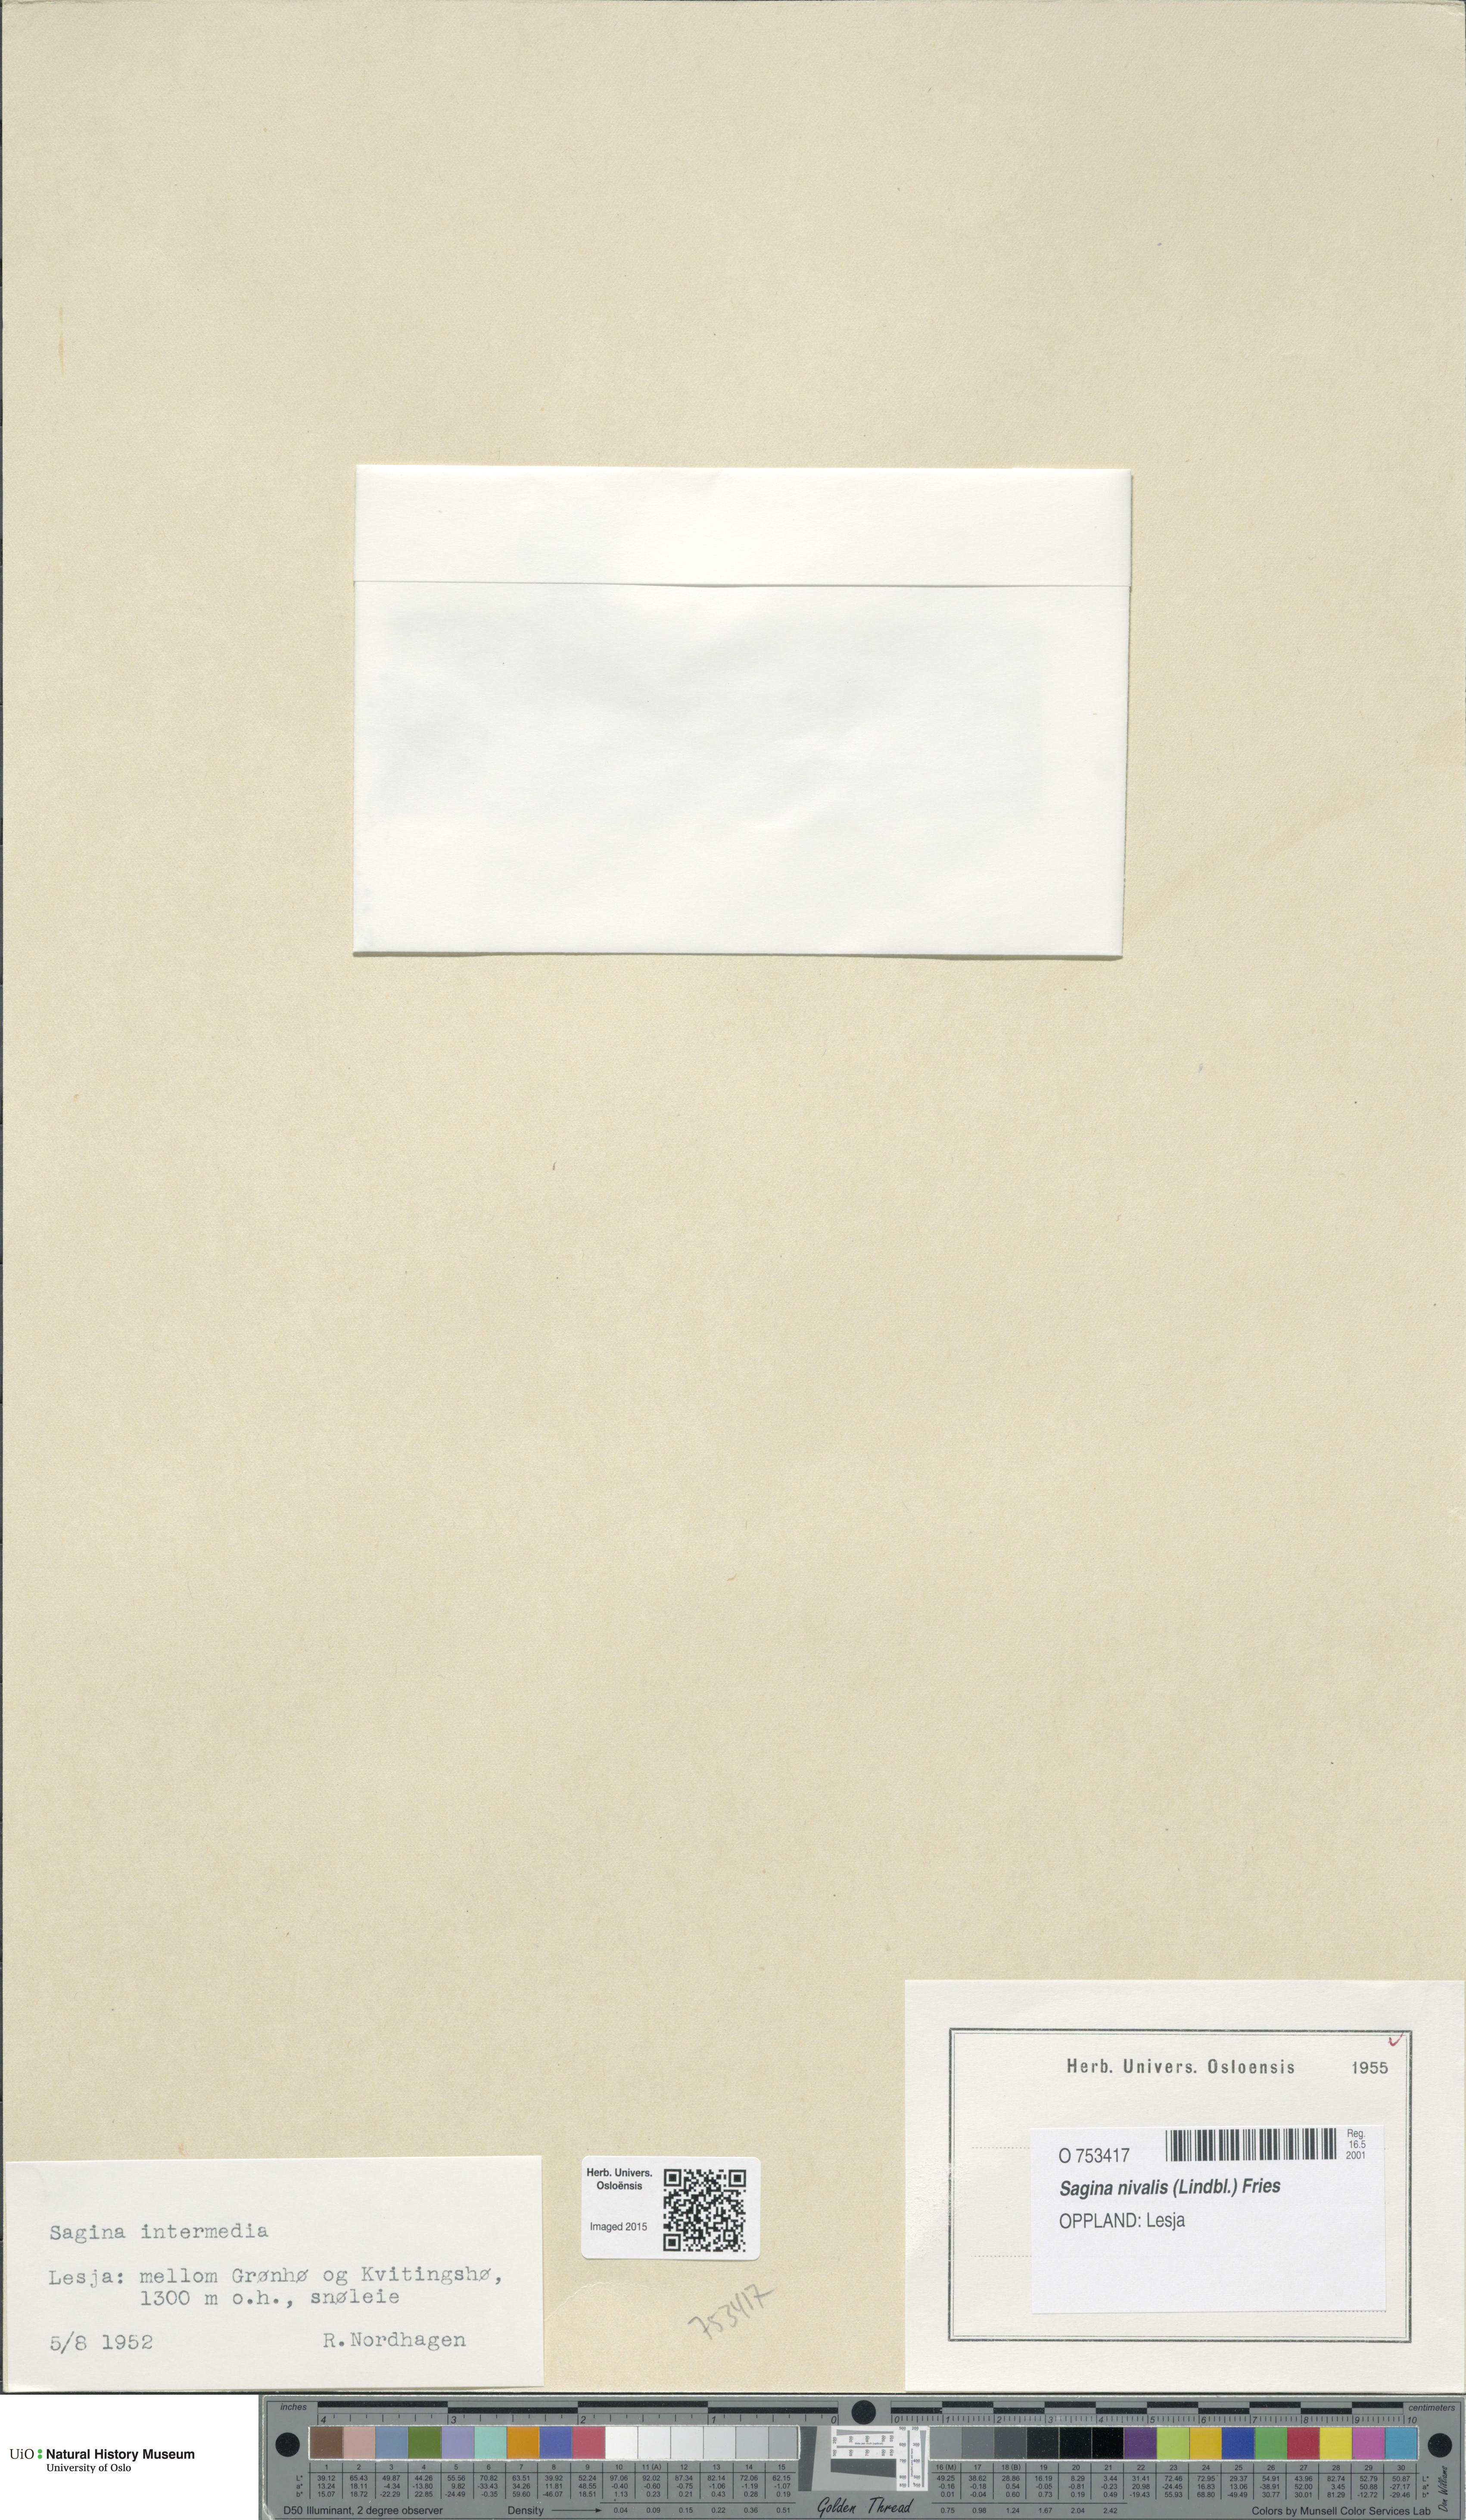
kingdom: Plantae
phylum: Tracheophyta
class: Magnoliopsida
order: Caryophyllales
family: Caryophyllaceae
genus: Sagina
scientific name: Sagina nivalis
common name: Snow pearlwort
